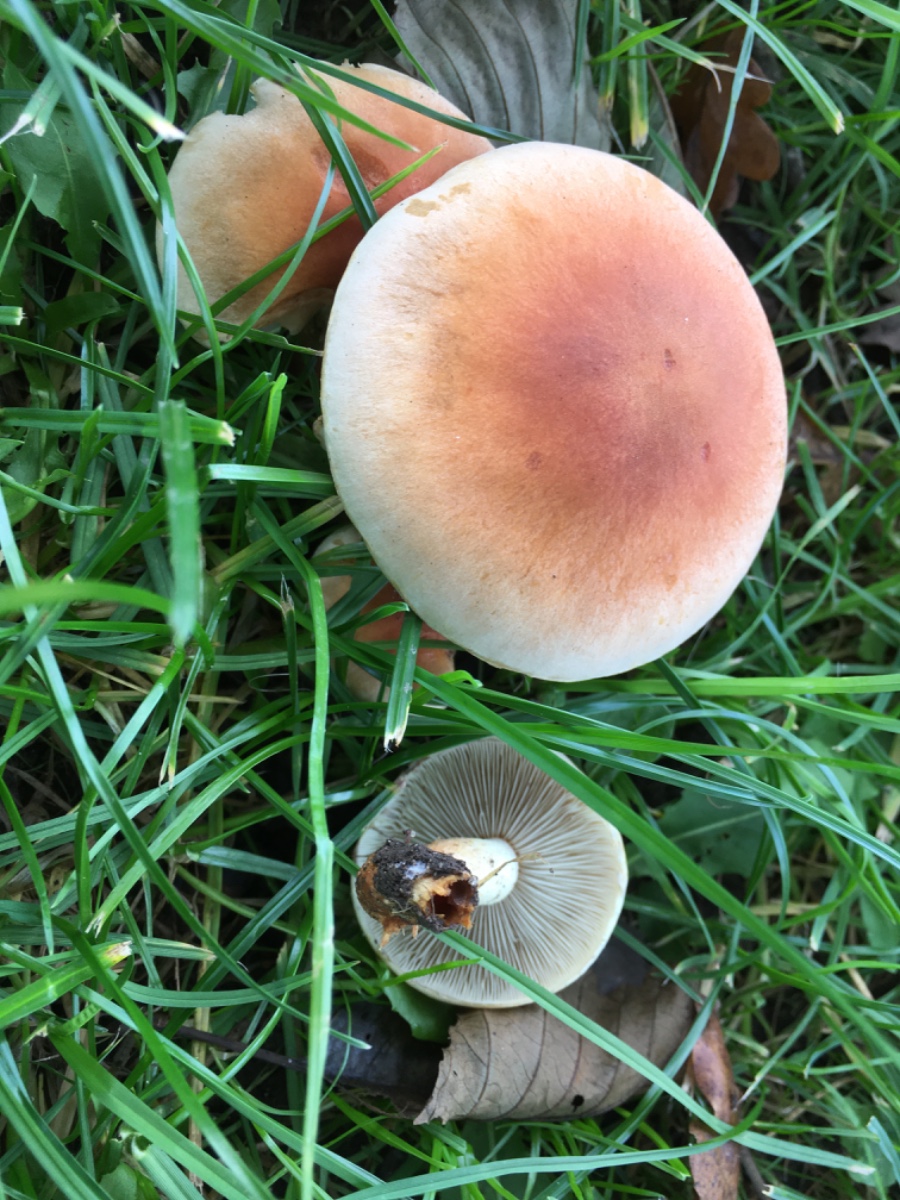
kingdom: Fungi
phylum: Basidiomycota
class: Agaricomycetes
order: Agaricales
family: Strophariaceae
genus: Hypholoma
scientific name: Hypholoma lateritium
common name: teglrød svovlhat
